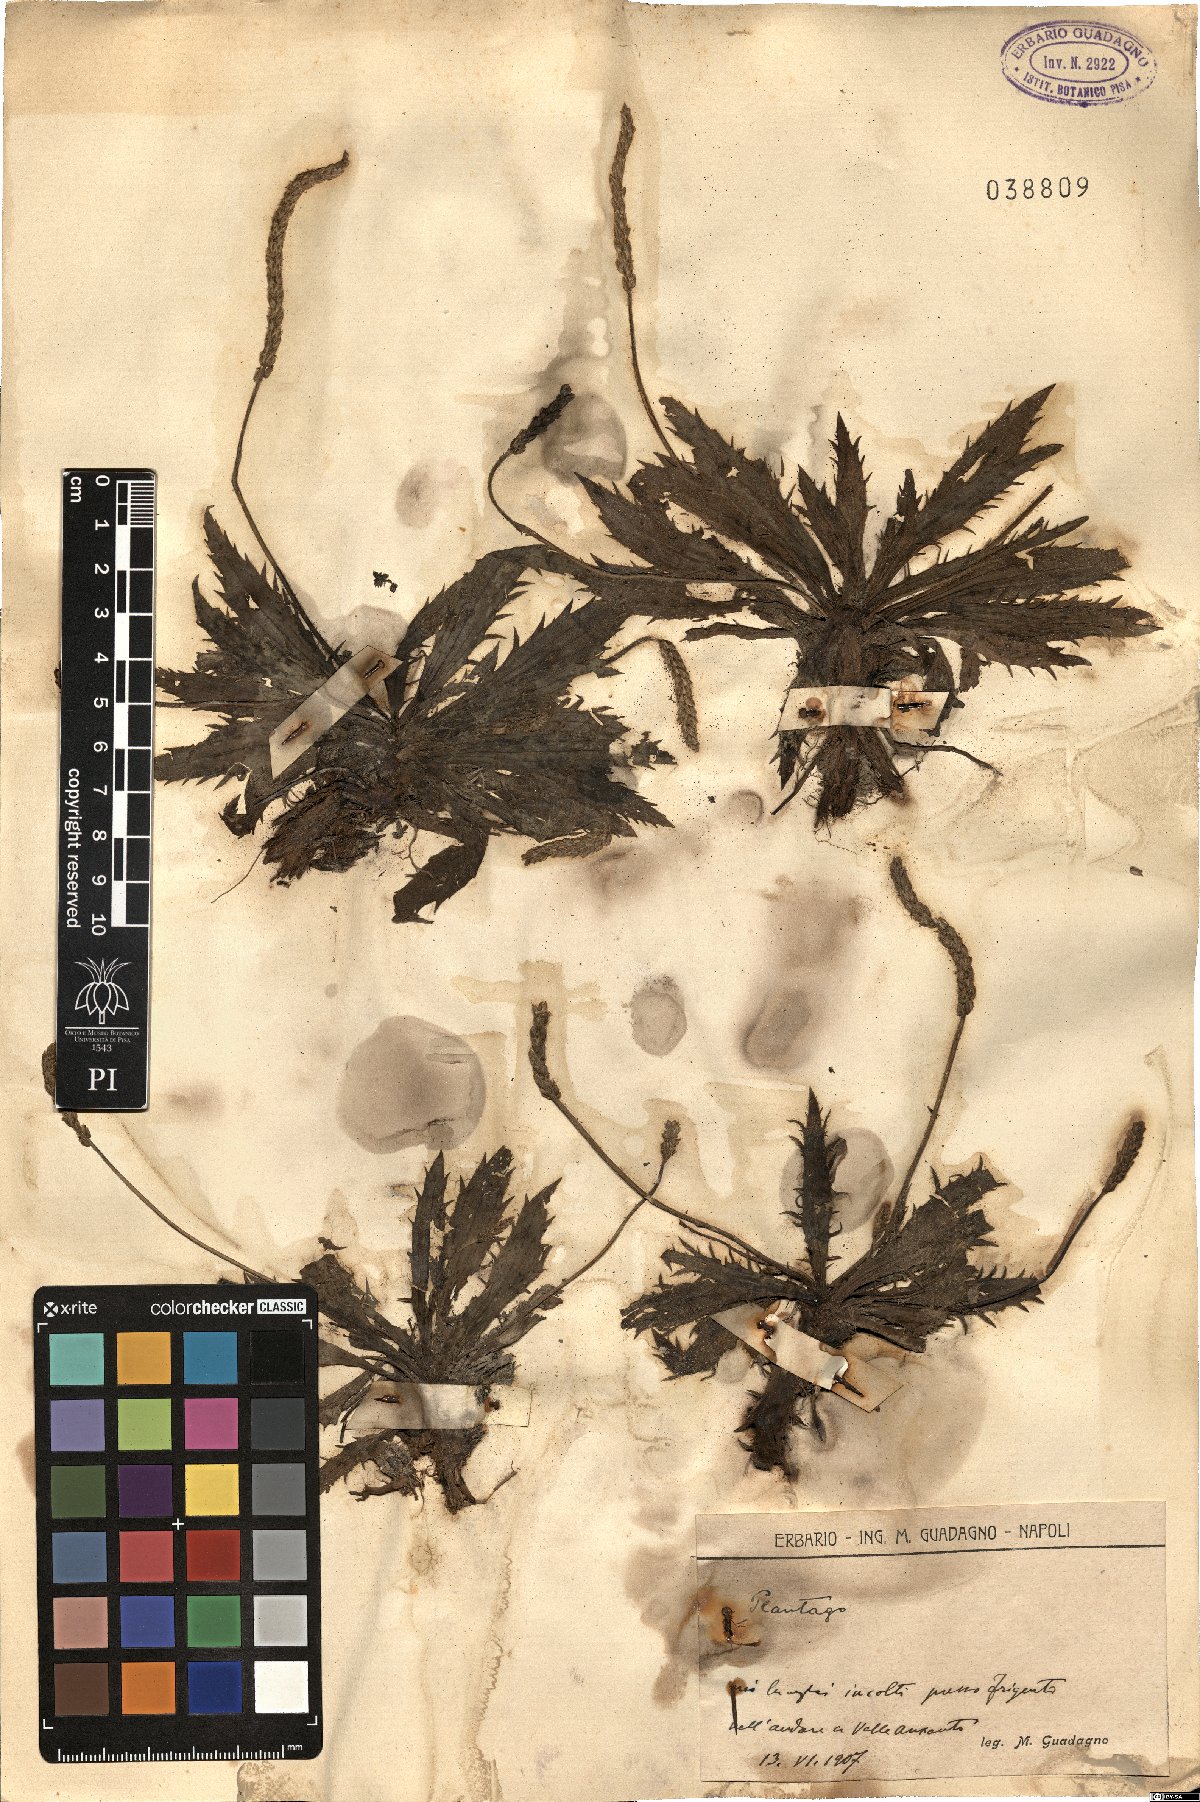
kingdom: Plantae
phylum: Tracheophyta
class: Magnoliopsida
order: Lamiales
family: Plantaginaceae
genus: Plantago
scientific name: Plantago
